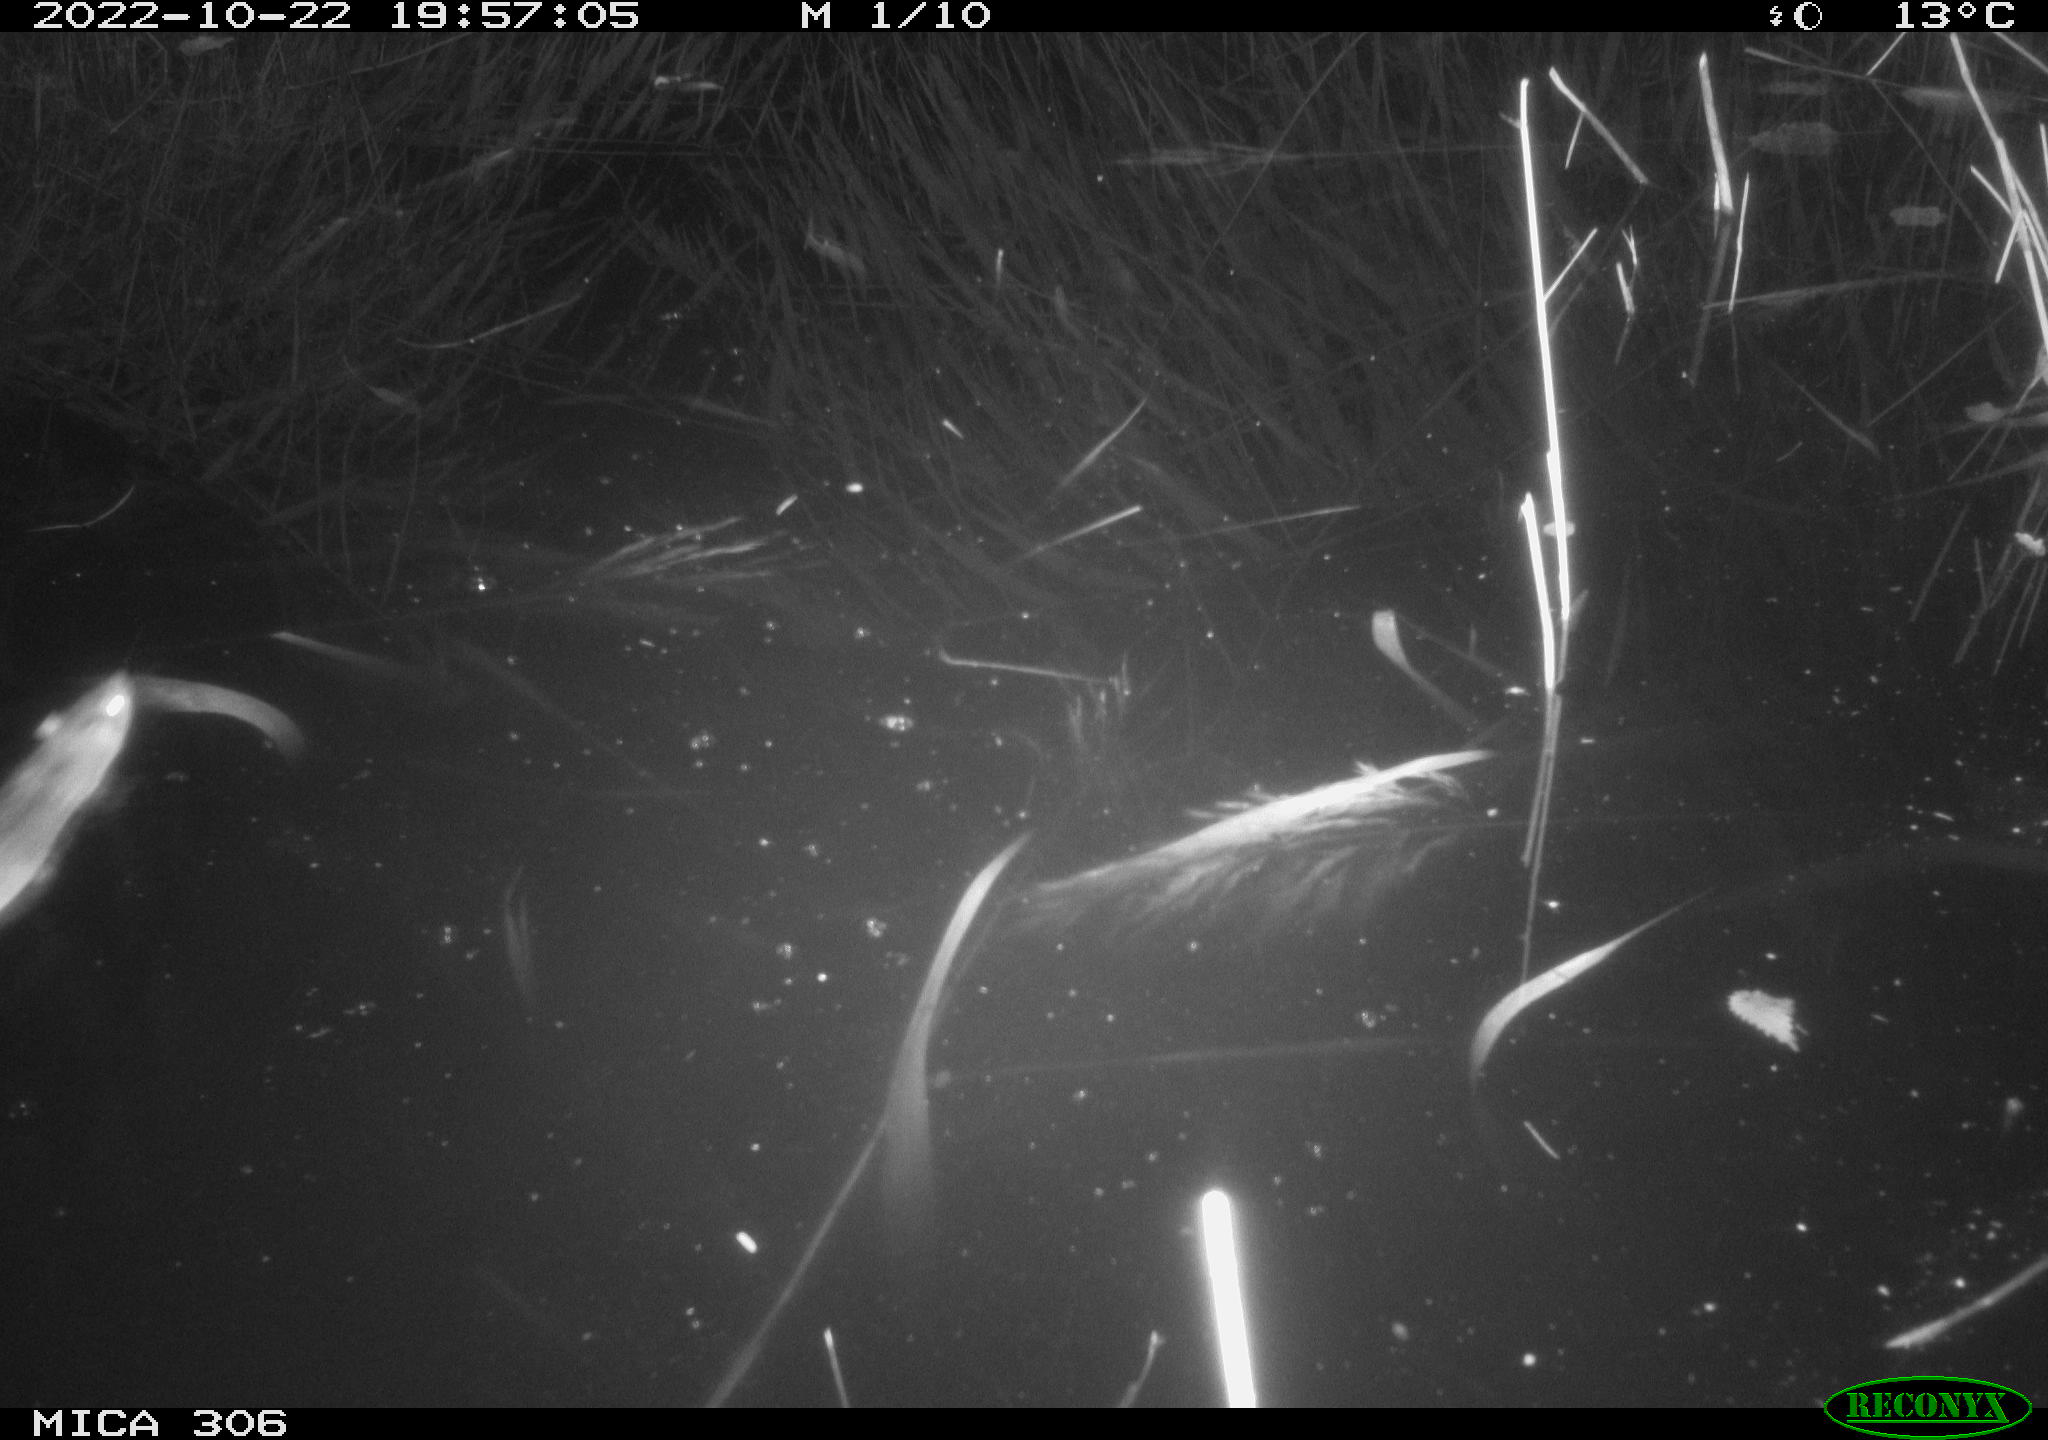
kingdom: Animalia
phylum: Chordata
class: Mammalia
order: Rodentia
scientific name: Rodentia
